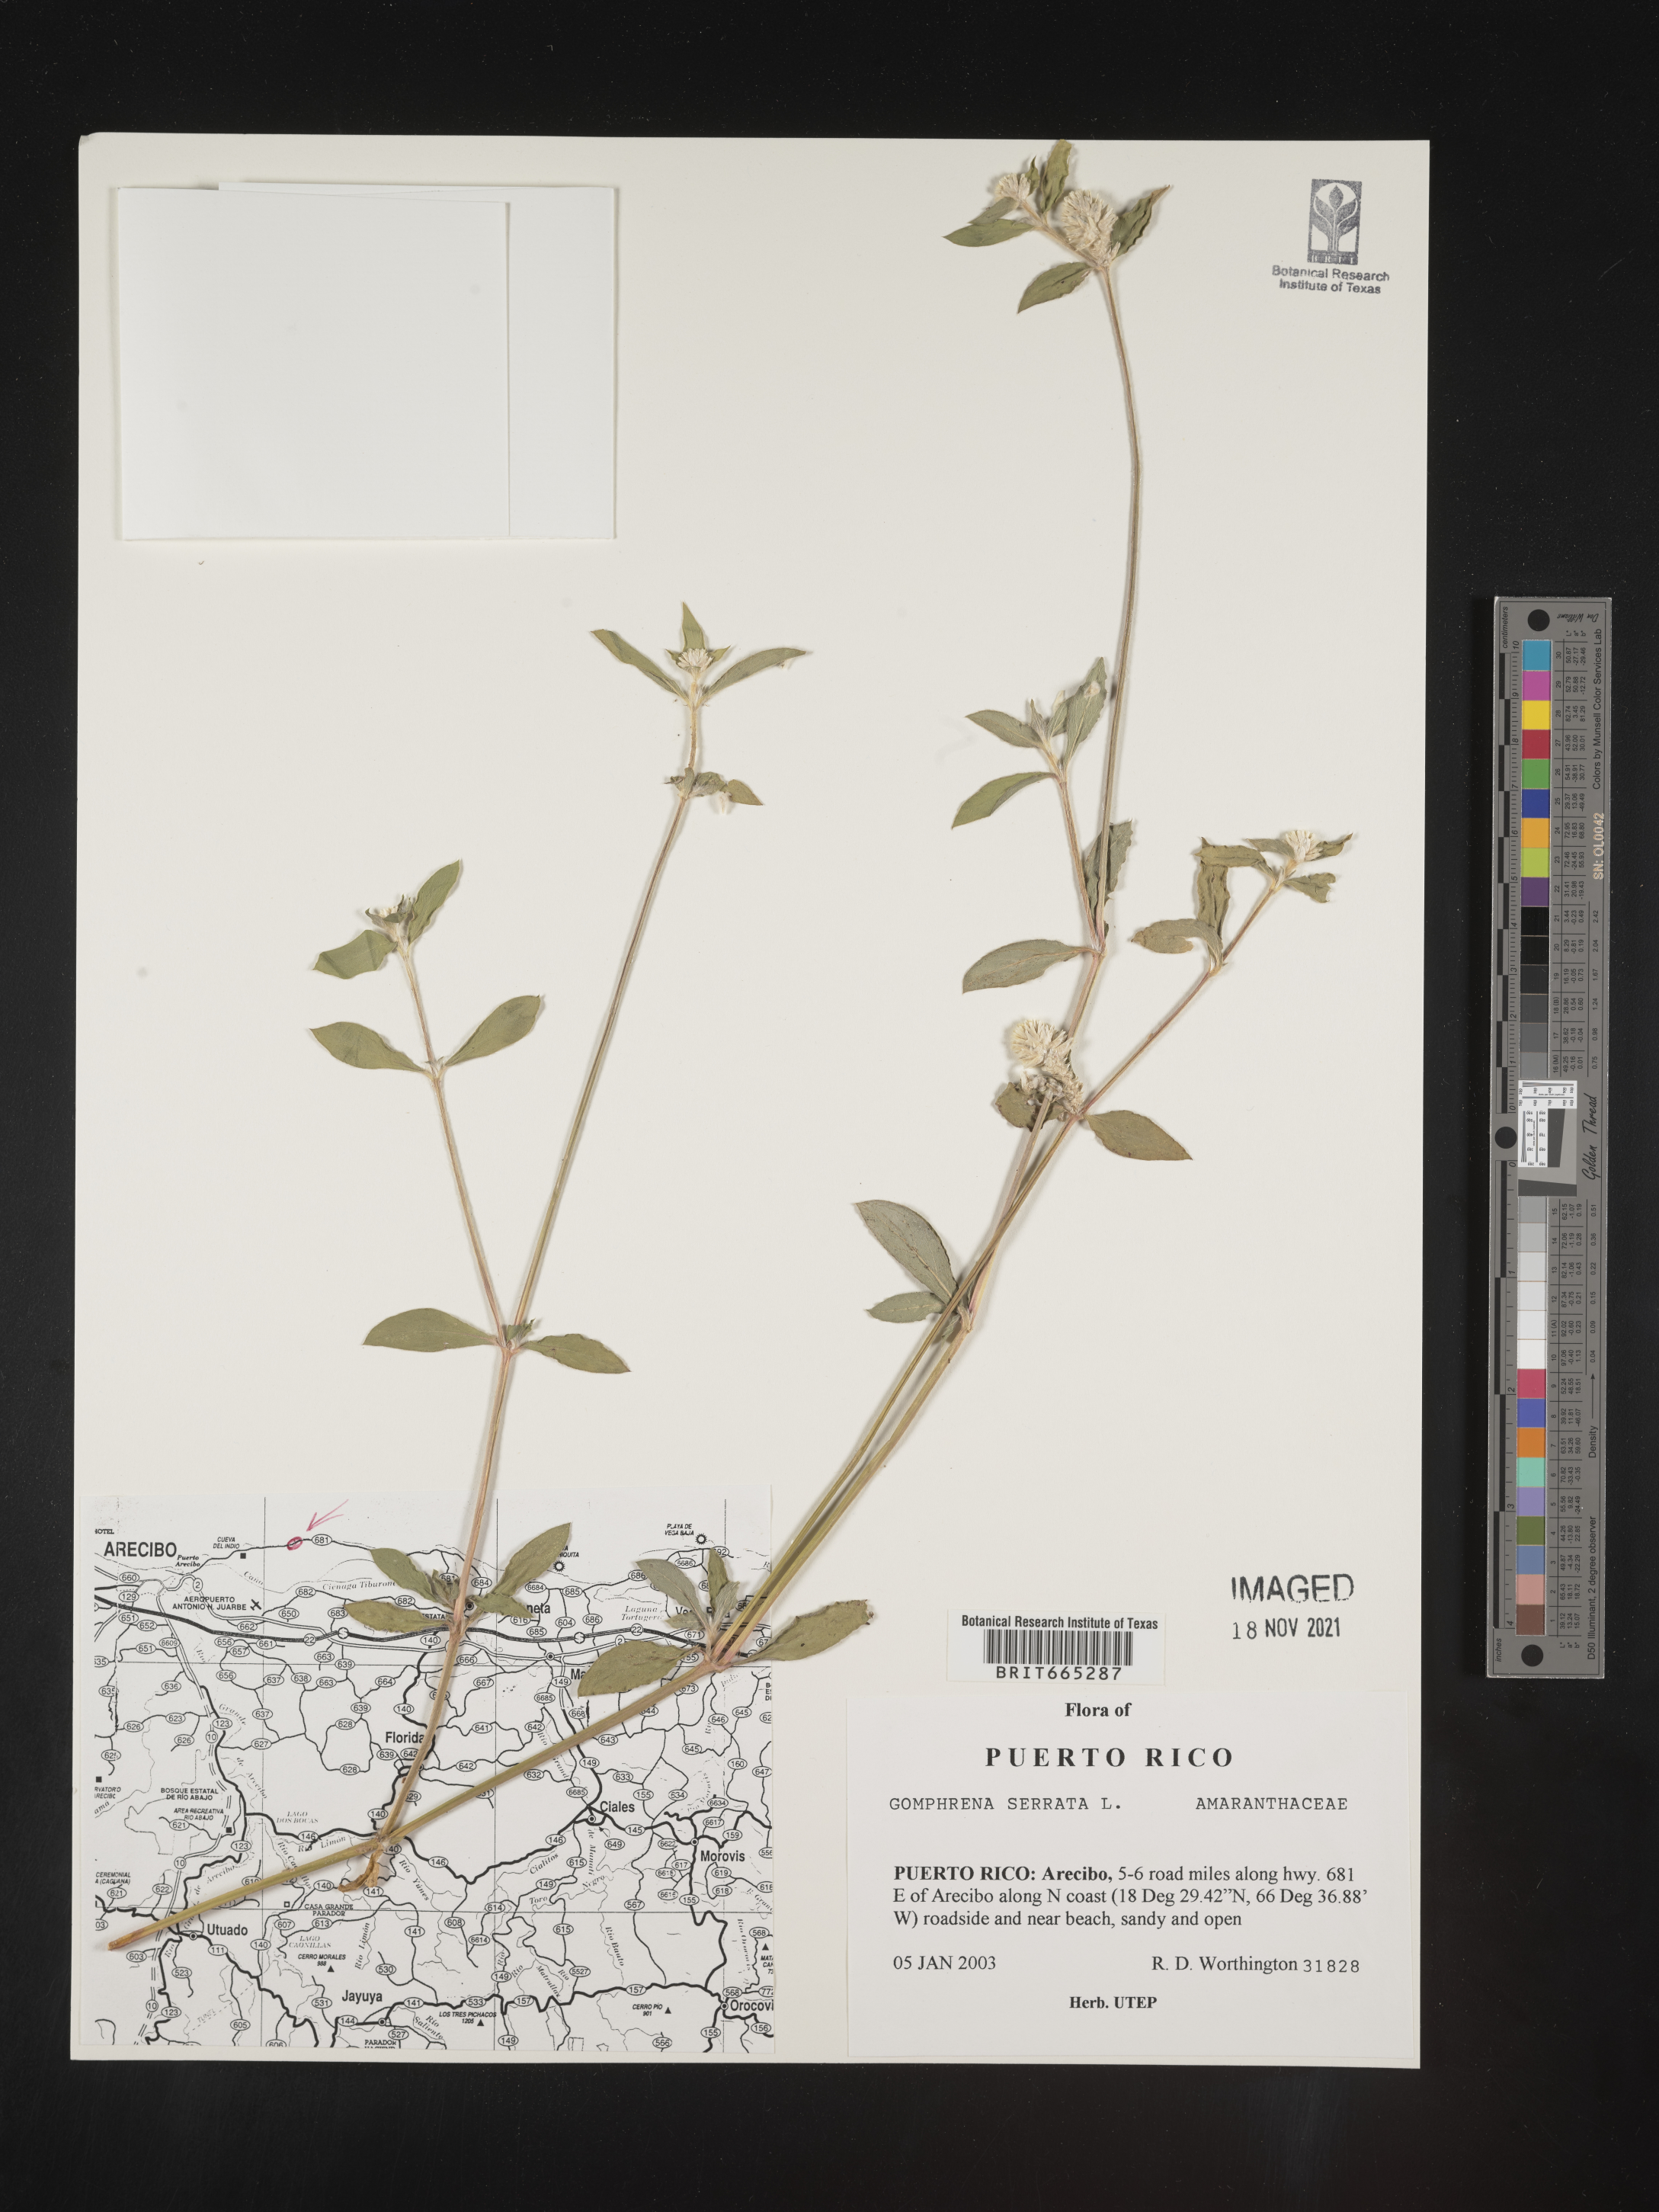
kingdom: Plantae
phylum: Tracheophyta
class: Magnoliopsida
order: Caryophyllales
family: Amaranthaceae
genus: Gomphrena
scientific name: Gomphrena
